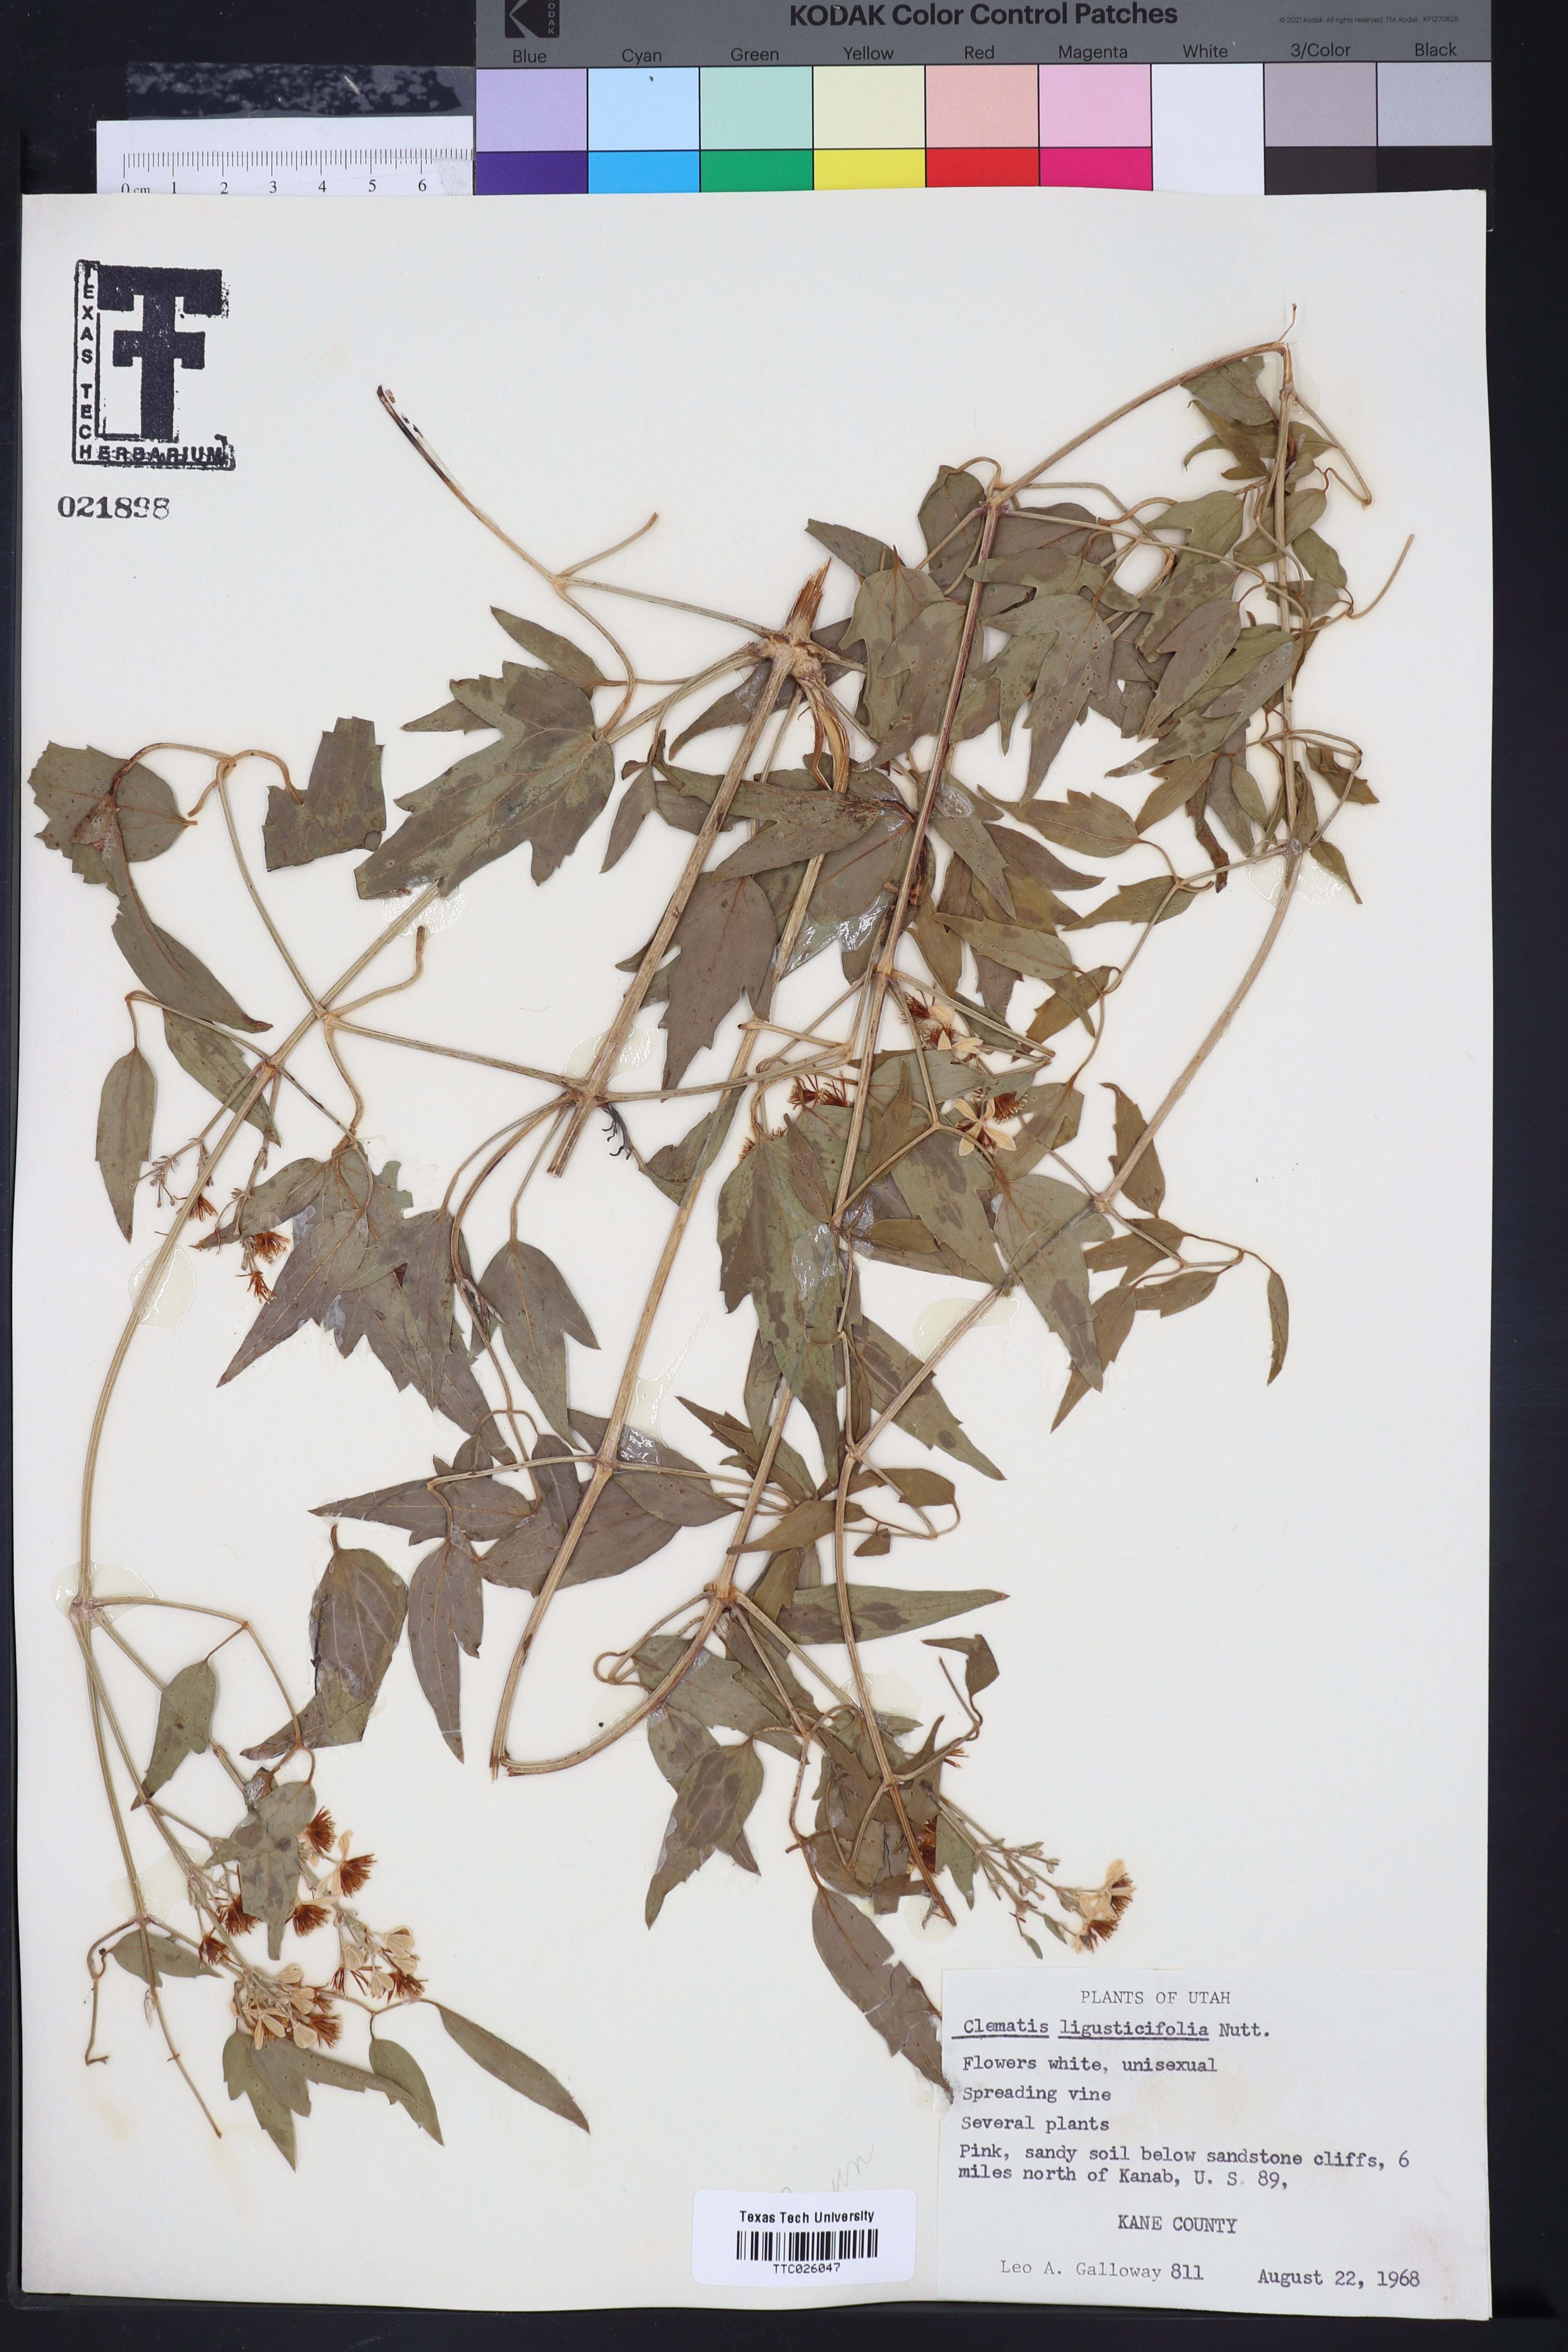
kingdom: Plantae
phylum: Tracheophyta
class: Magnoliopsida
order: Ranunculales
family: Ranunculaceae
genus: Clematis
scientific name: Clematis ligusticifolia
